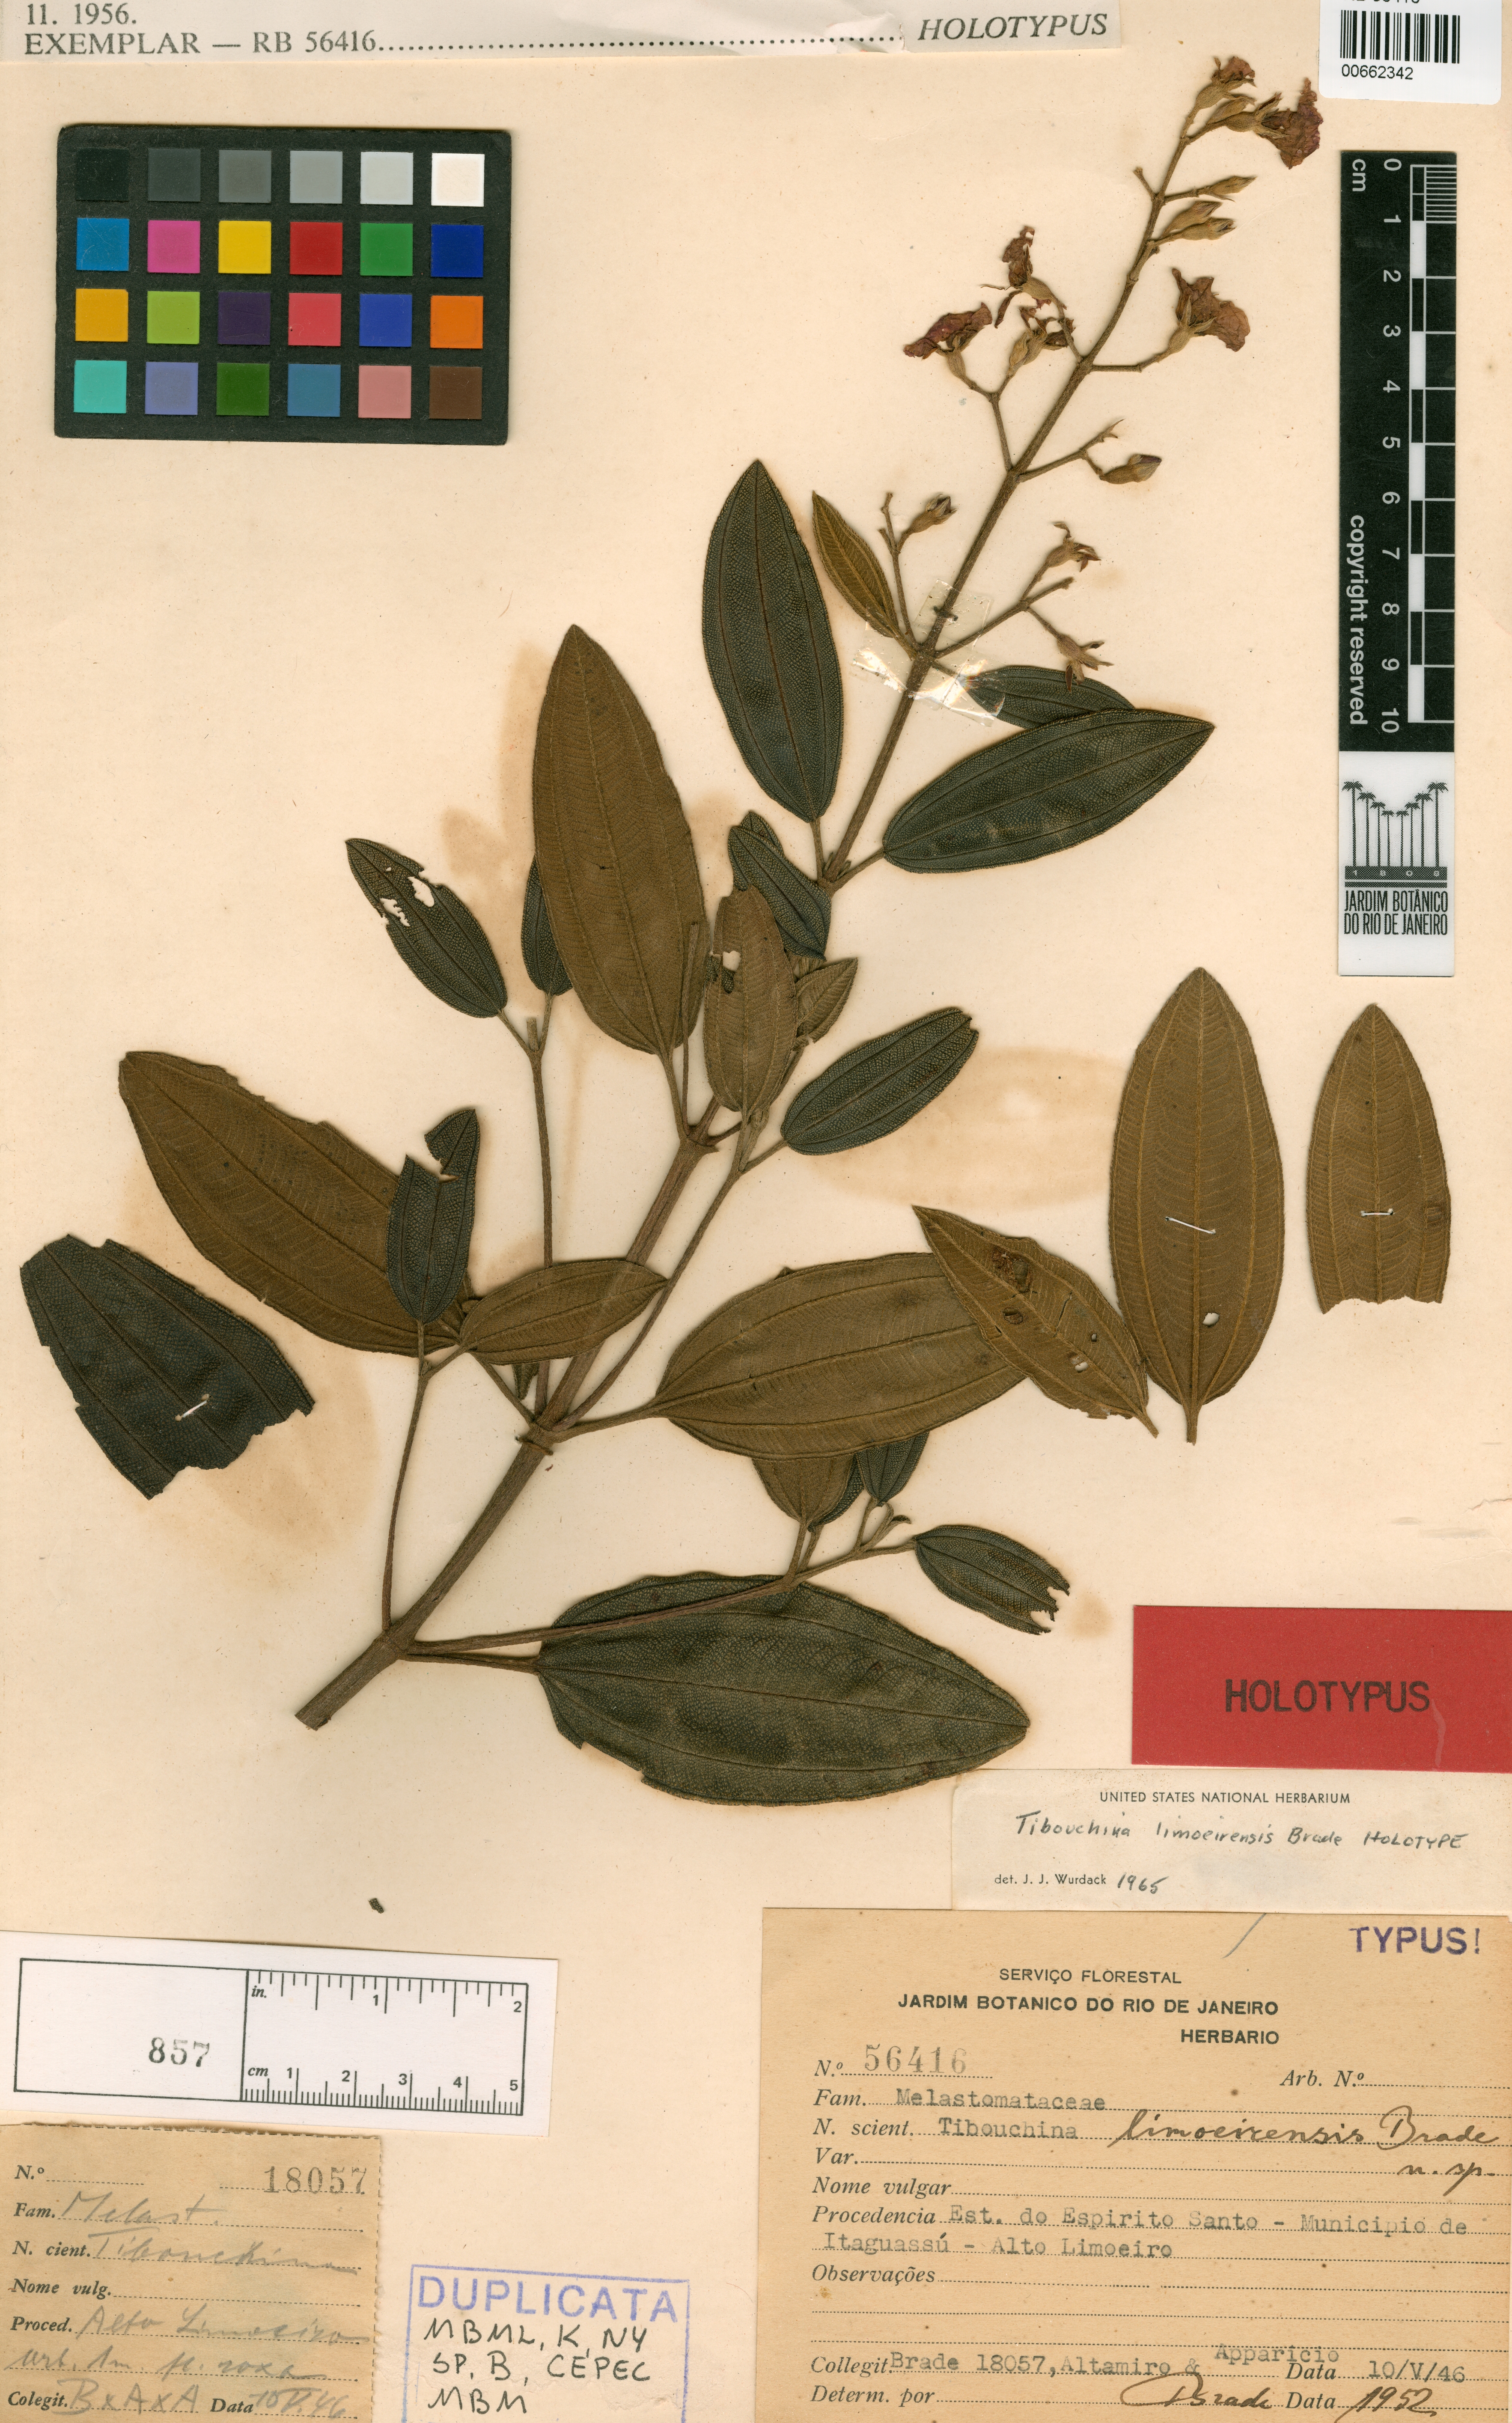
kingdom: Plantae
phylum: Tracheophyta
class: Magnoliopsida
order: Myrtales
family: Melastomataceae
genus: Pleroma
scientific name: Pleroma radula
